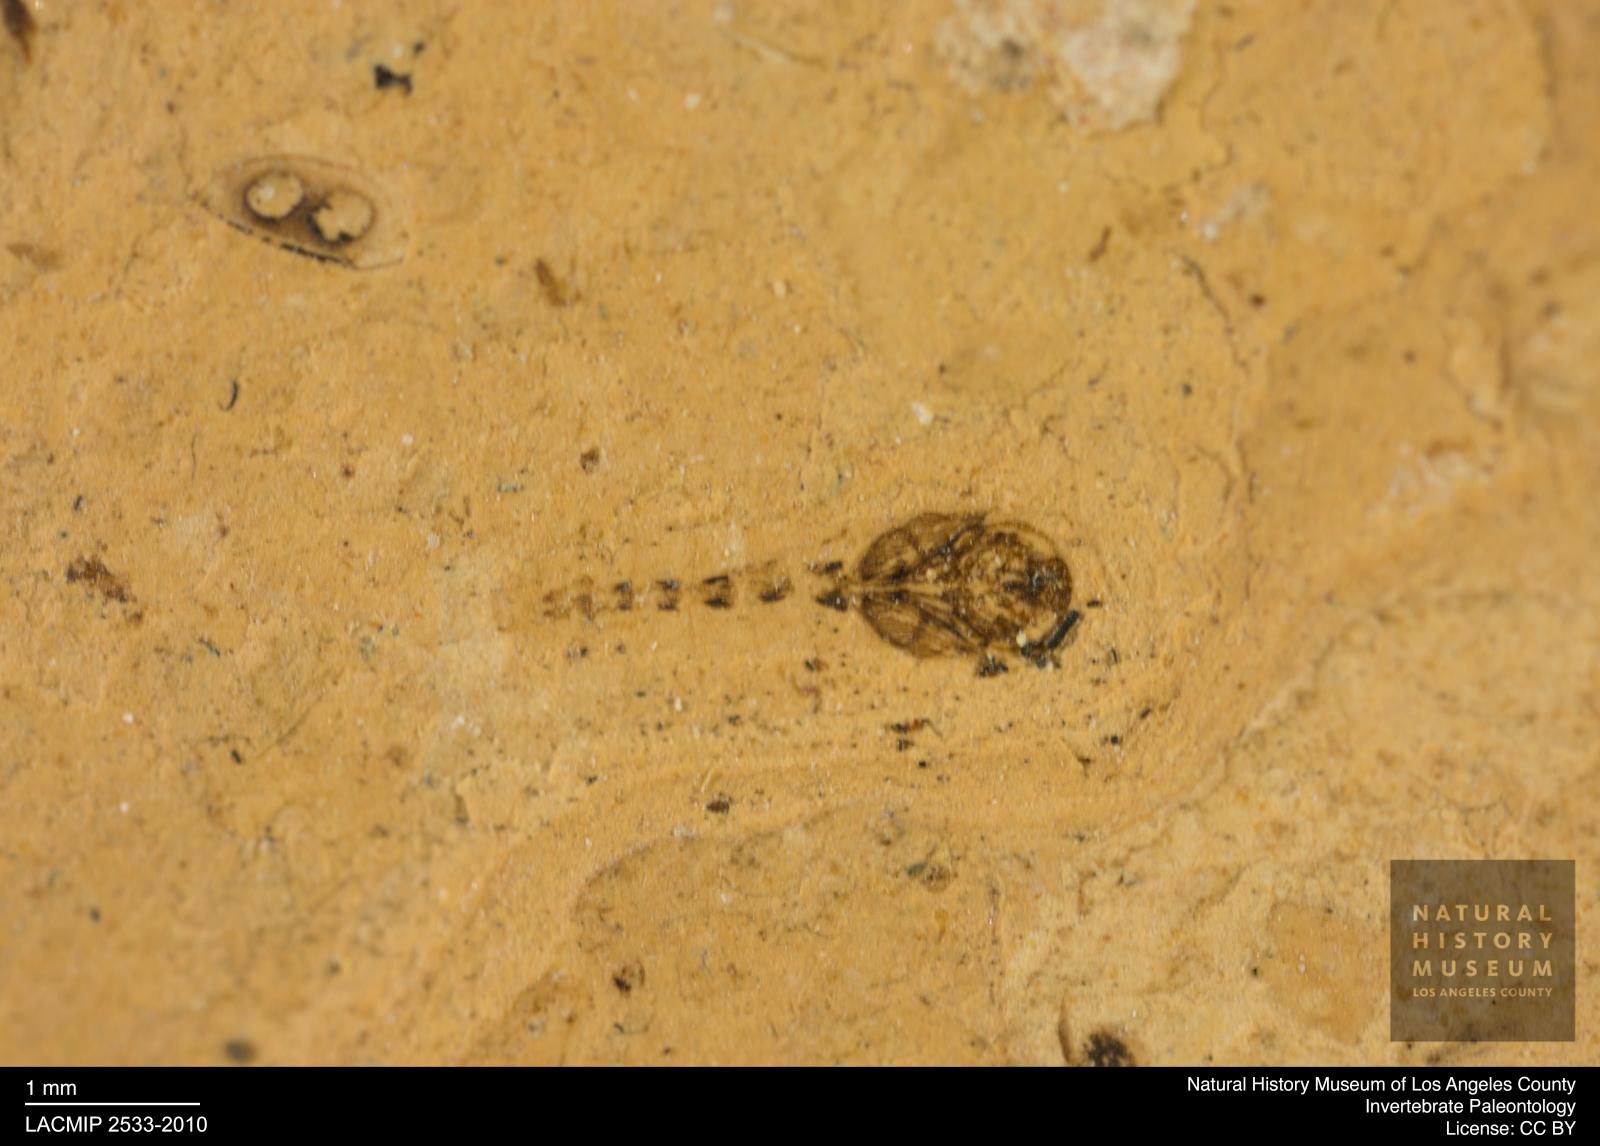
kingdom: Animalia
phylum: Arthropoda
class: Insecta
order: Diptera
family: Ceratopogonidae
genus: Ceratopogon
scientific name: Ceratopogon
